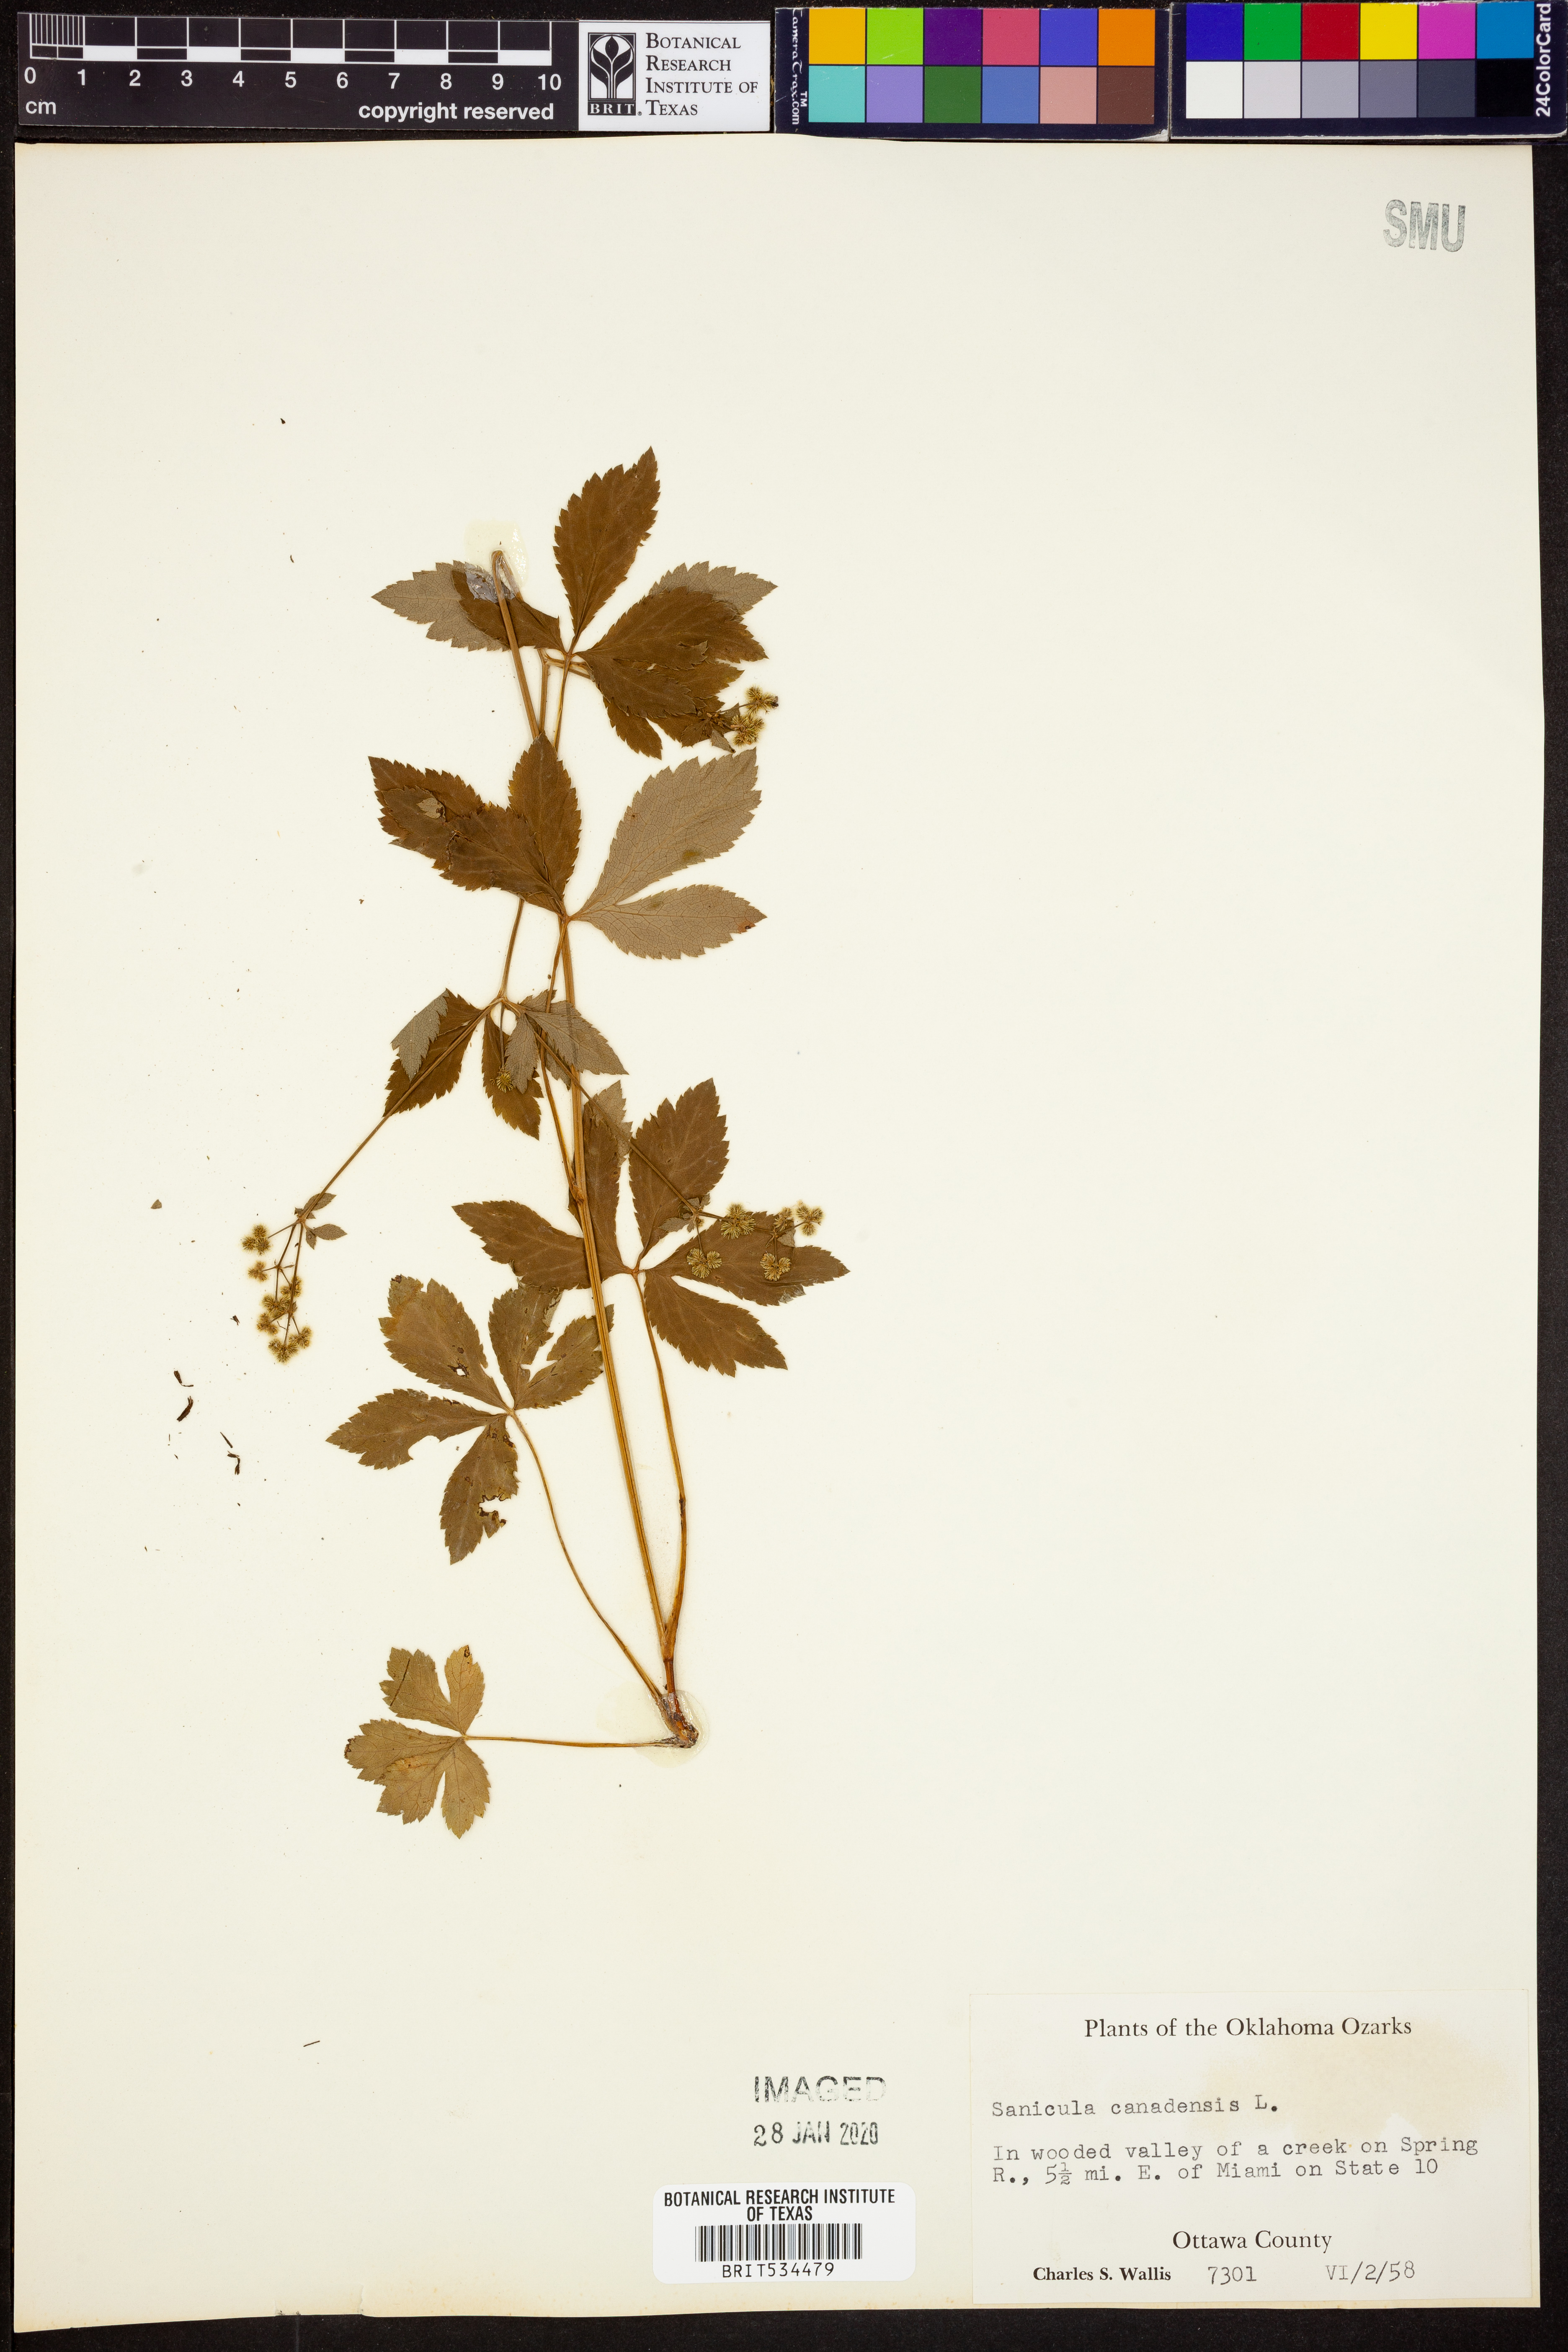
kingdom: Plantae
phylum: Tracheophyta
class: Magnoliopsida
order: Apiales
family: Apiaceae
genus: Sanicula
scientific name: Sanicula canadensis
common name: Canada sanicle
